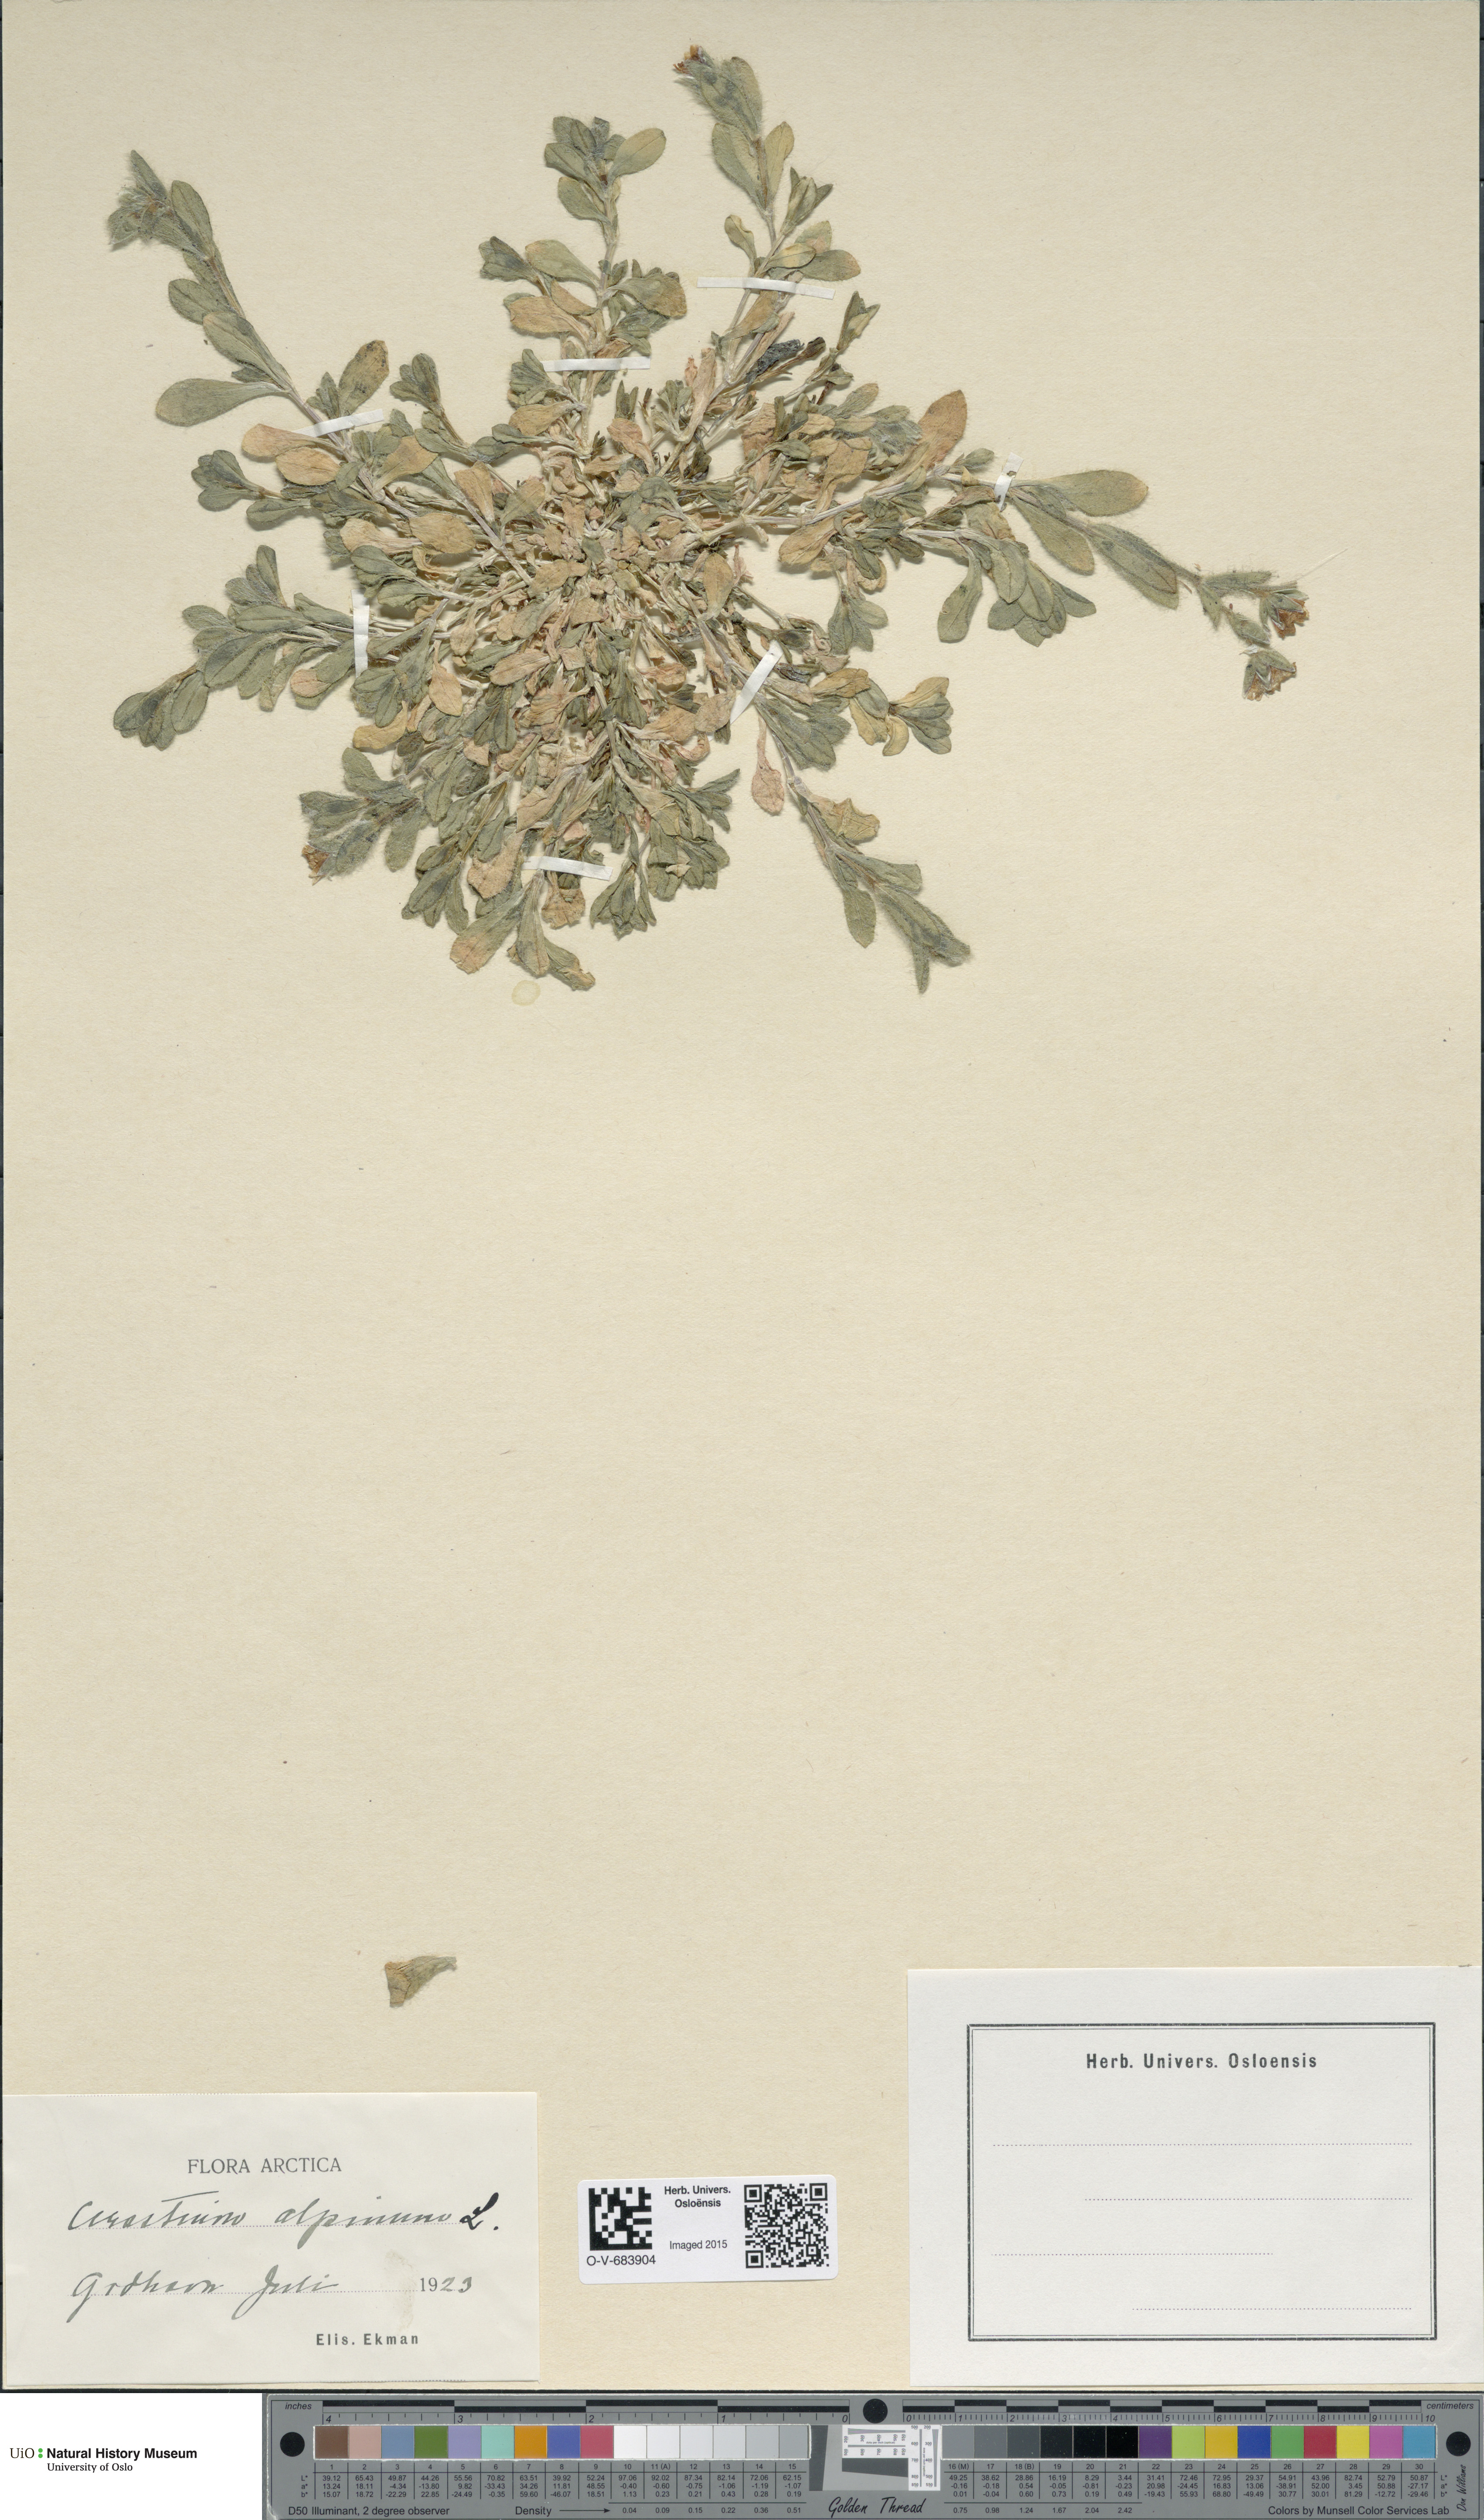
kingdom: Plantae
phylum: Tracheophyta
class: Magnoliopsida
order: Caryophyllales
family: Caryophyllaceae
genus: Cerastium
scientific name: Cerastium alpinum
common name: Alpine mouse-ear
